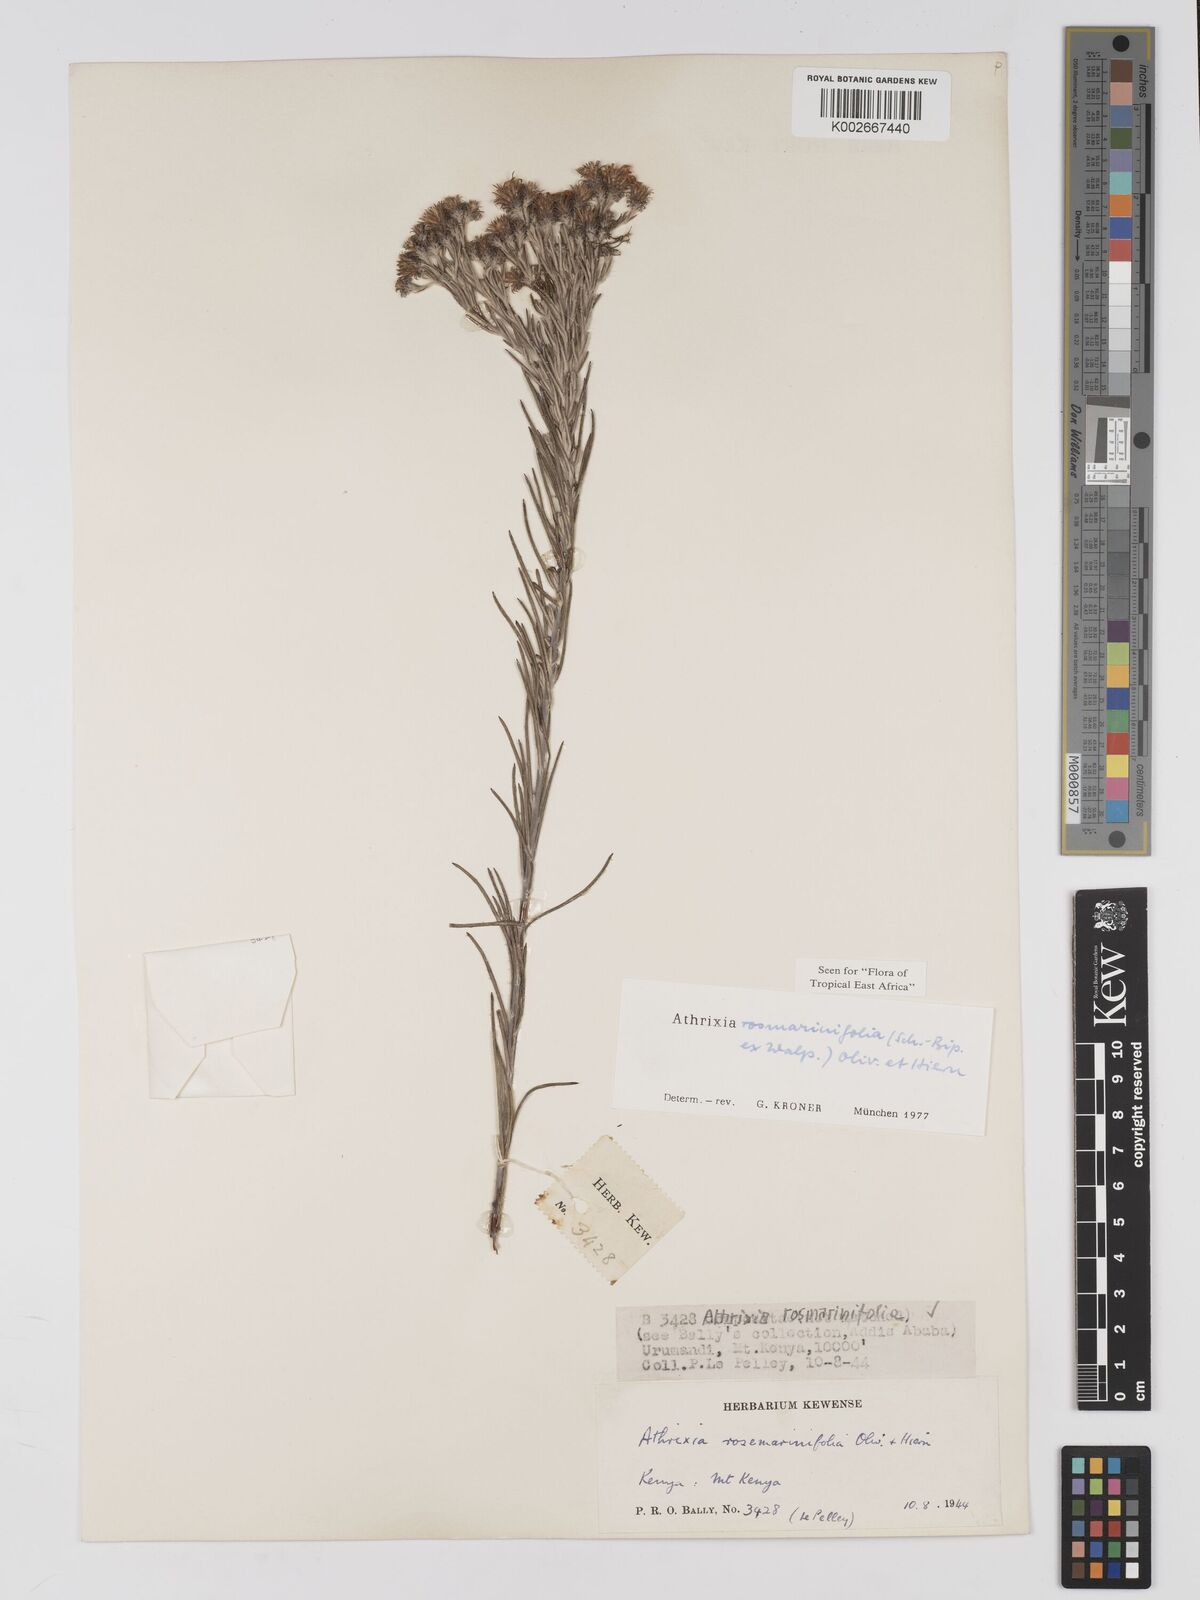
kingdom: Plantae
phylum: Tracheophyta
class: Magnoliopsida
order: Asterales
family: Asteraceae
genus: Athrixia
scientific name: Athrixia rosmarinifolia
